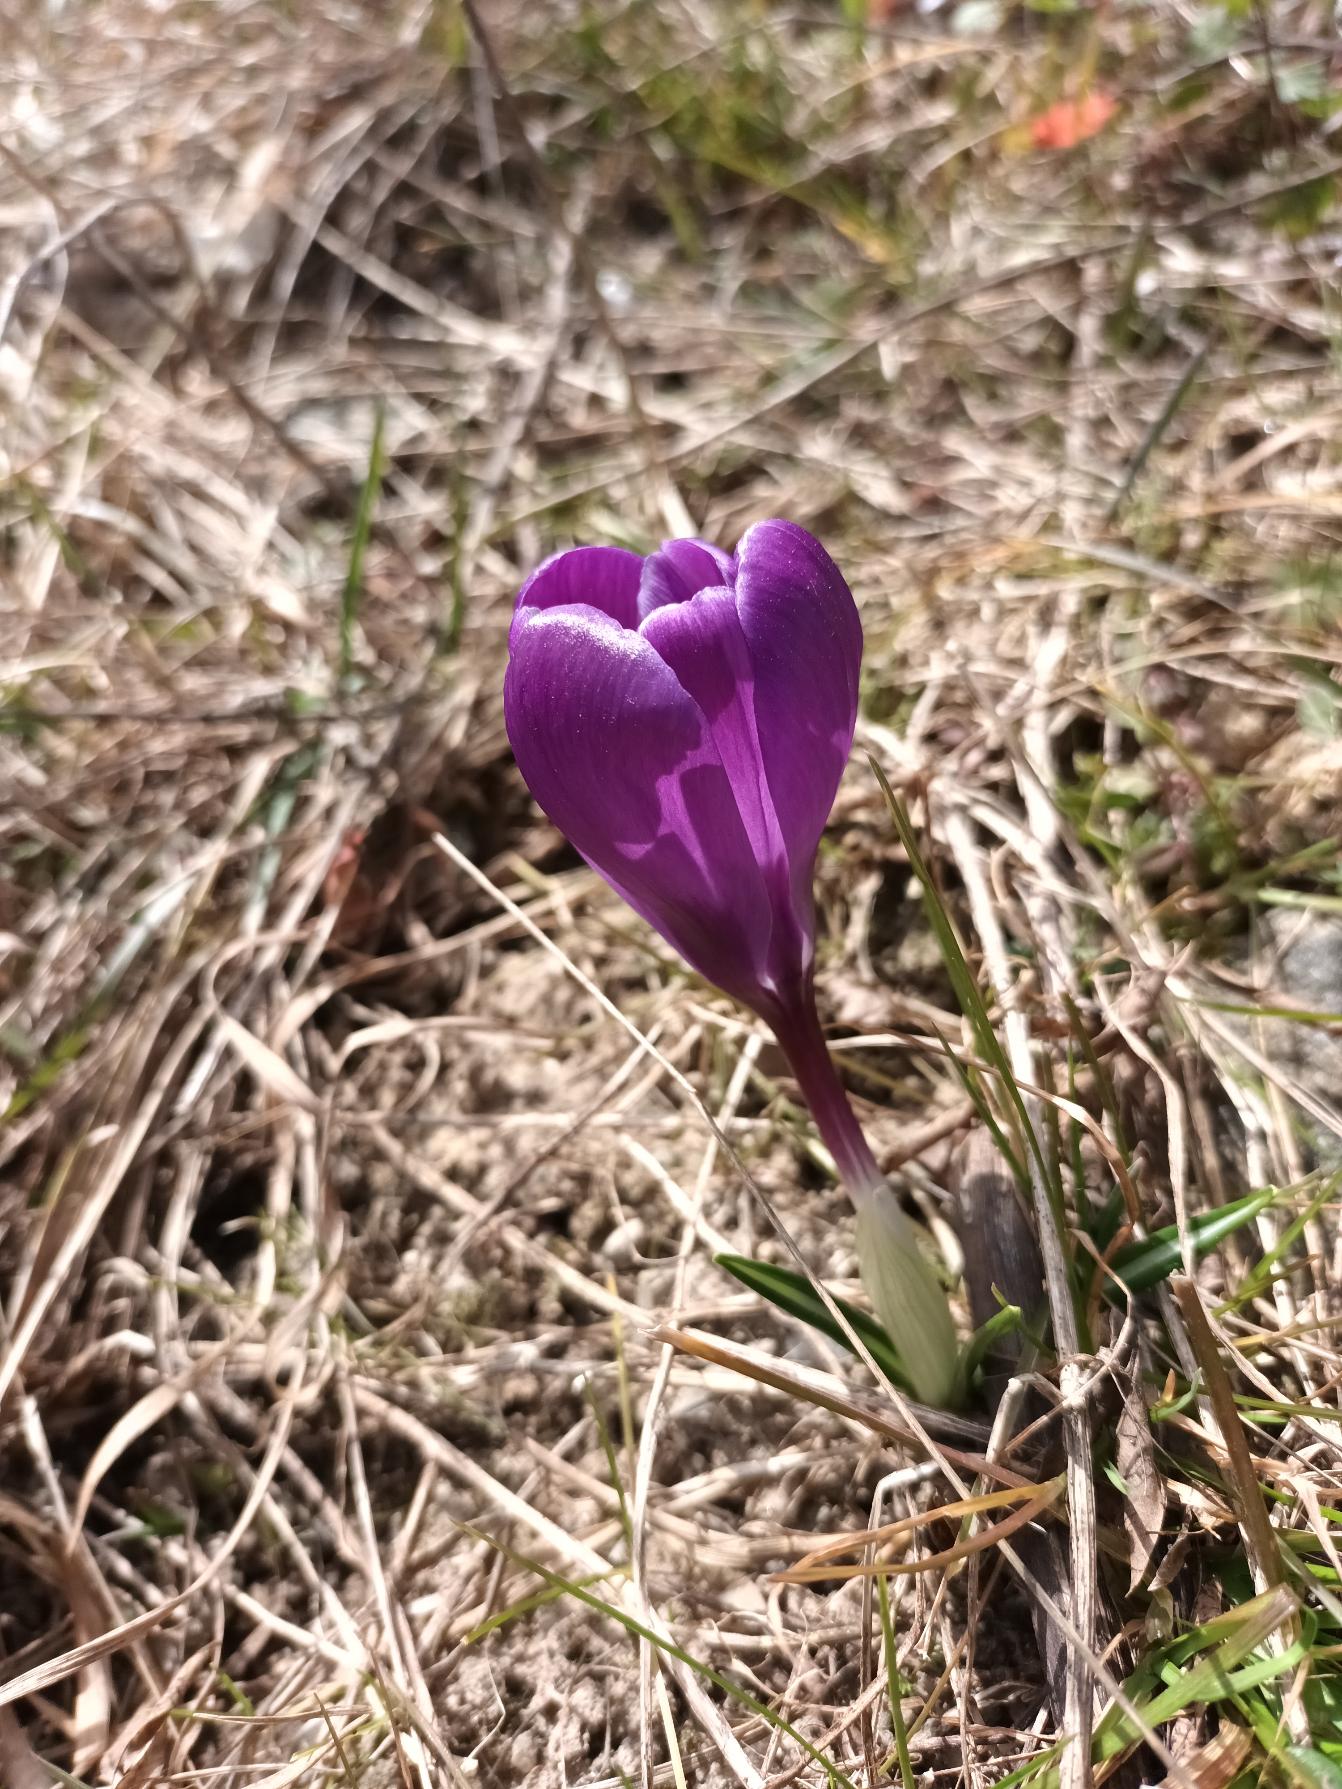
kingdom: Plantae
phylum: Tracheophyta
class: Liliopsida
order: Asparagales
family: Iridaceae
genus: Crocus
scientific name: Crocus vernus
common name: Vår-krokus
